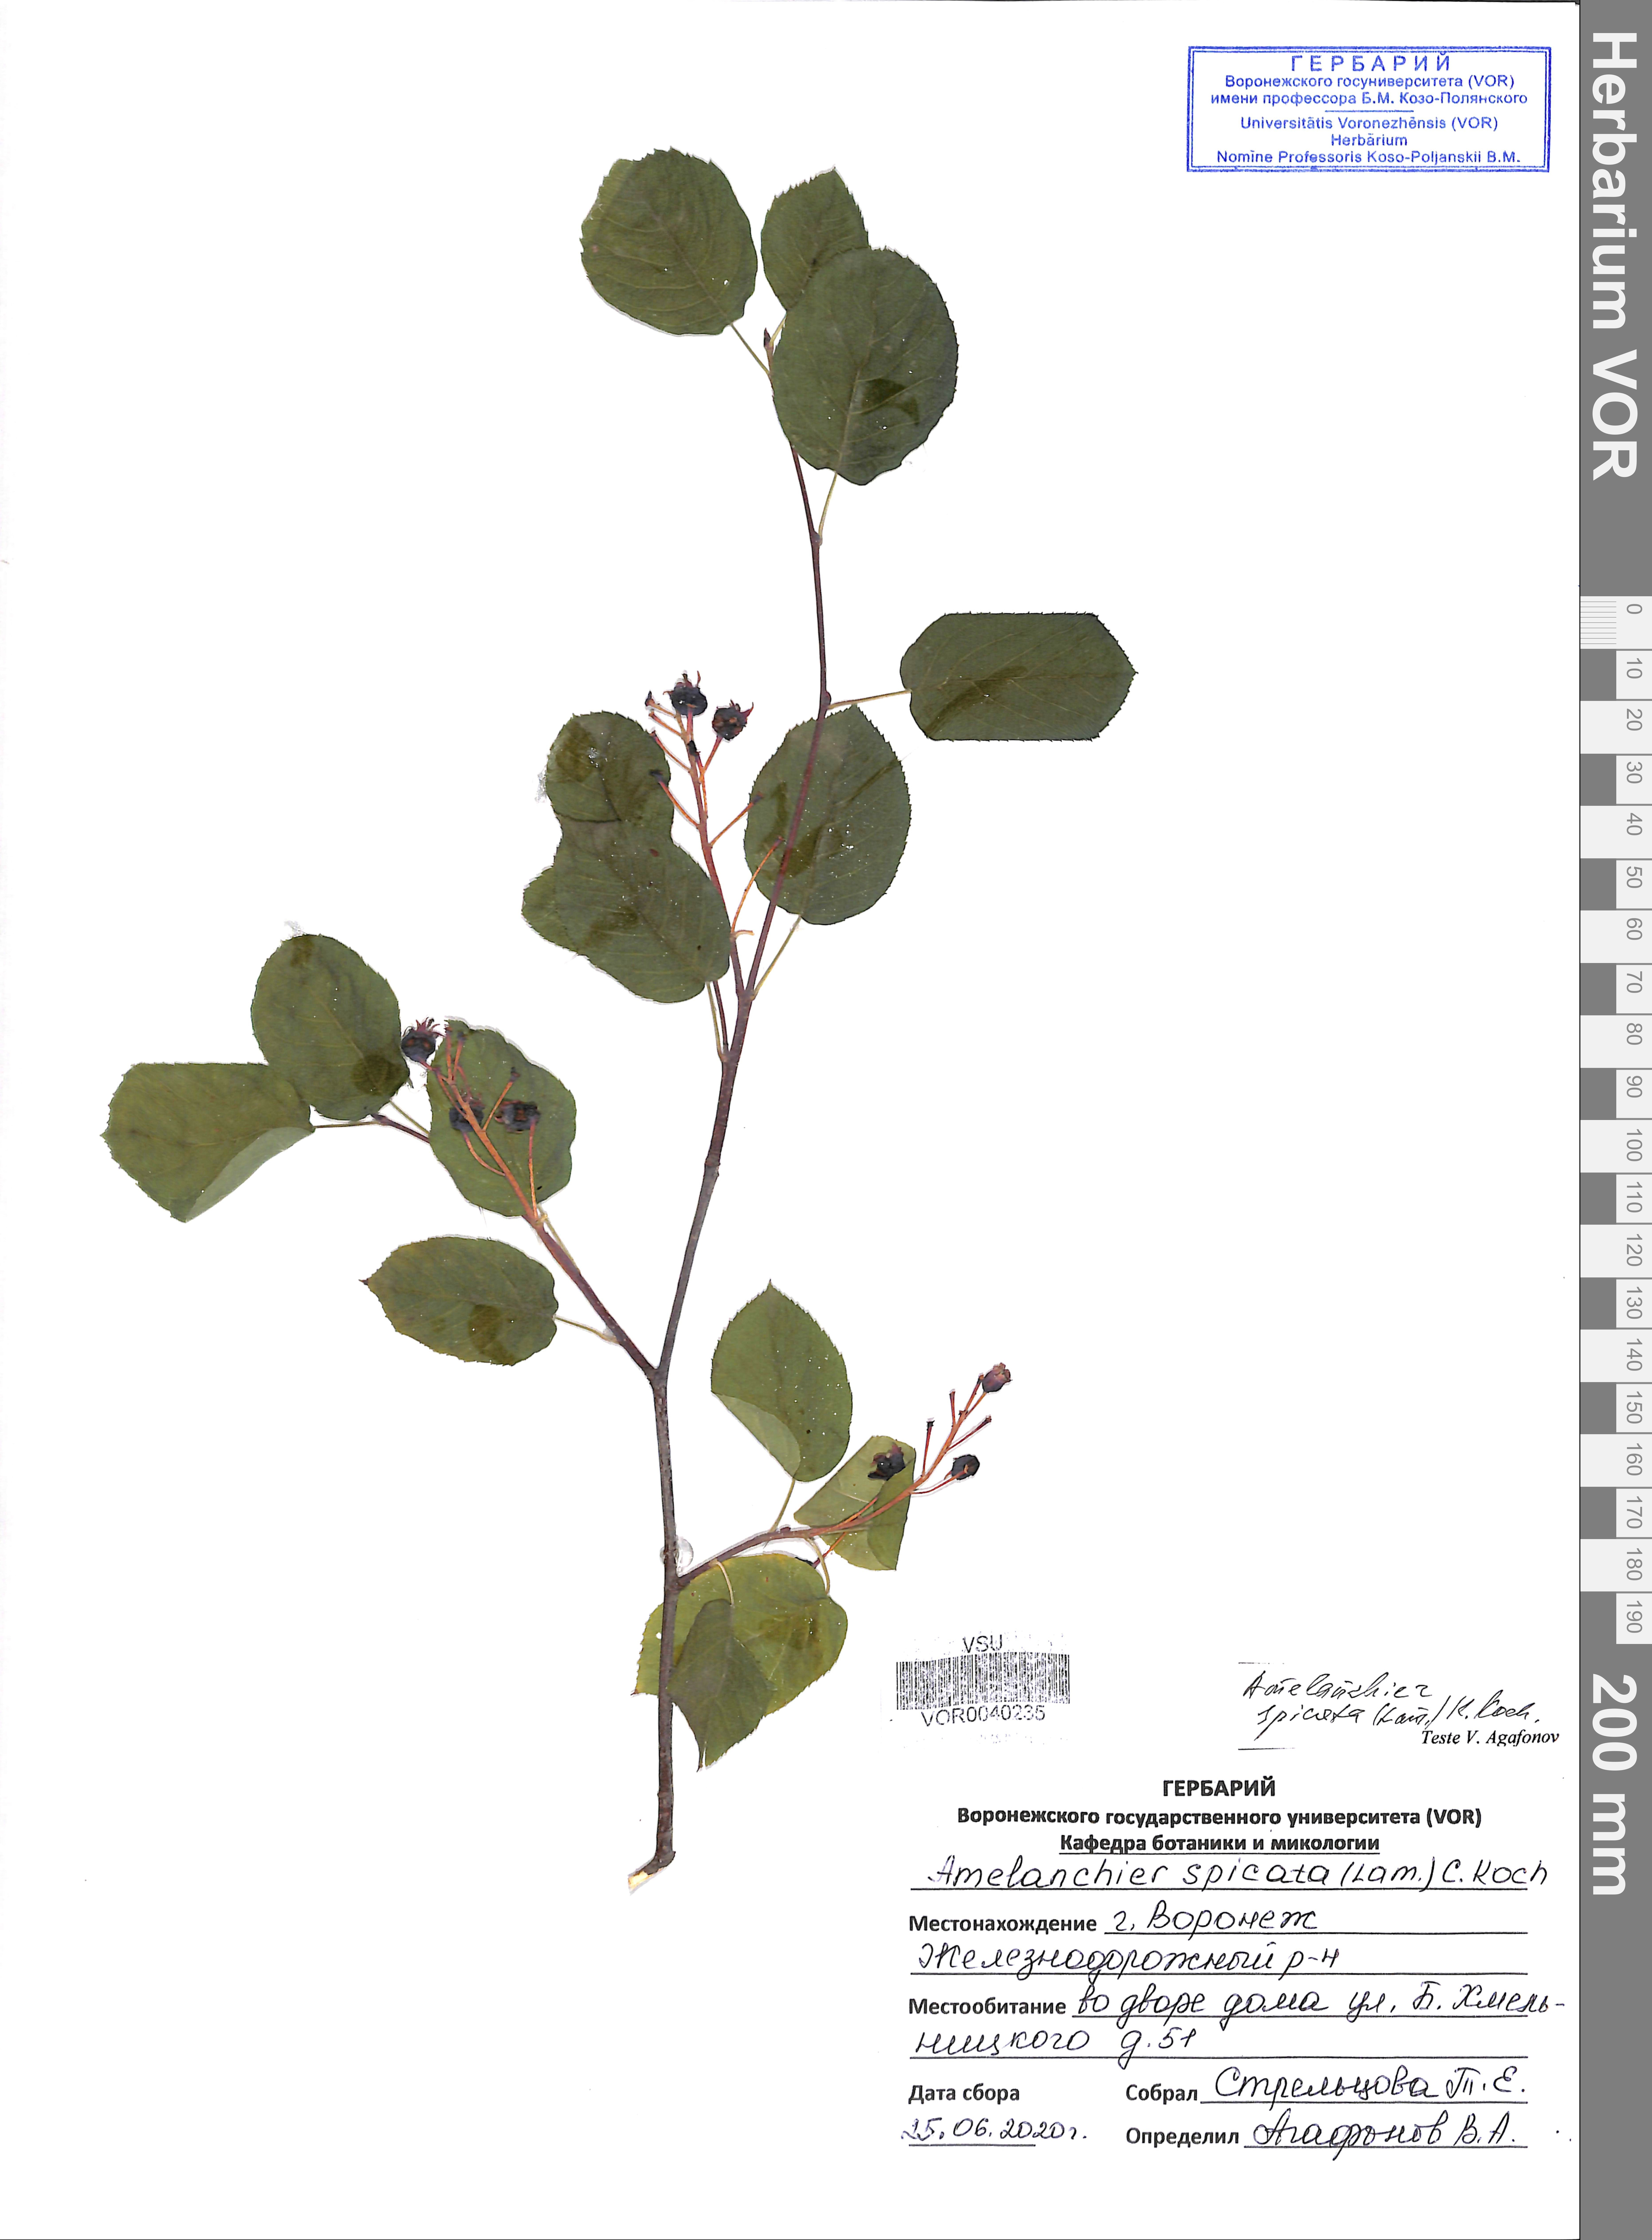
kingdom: Plantae
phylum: Tracheophyta
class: Magnoliopsida
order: Rosales
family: Rosaceae
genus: Amelanchier
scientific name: Amelanchier humilis
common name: Low juneberry
